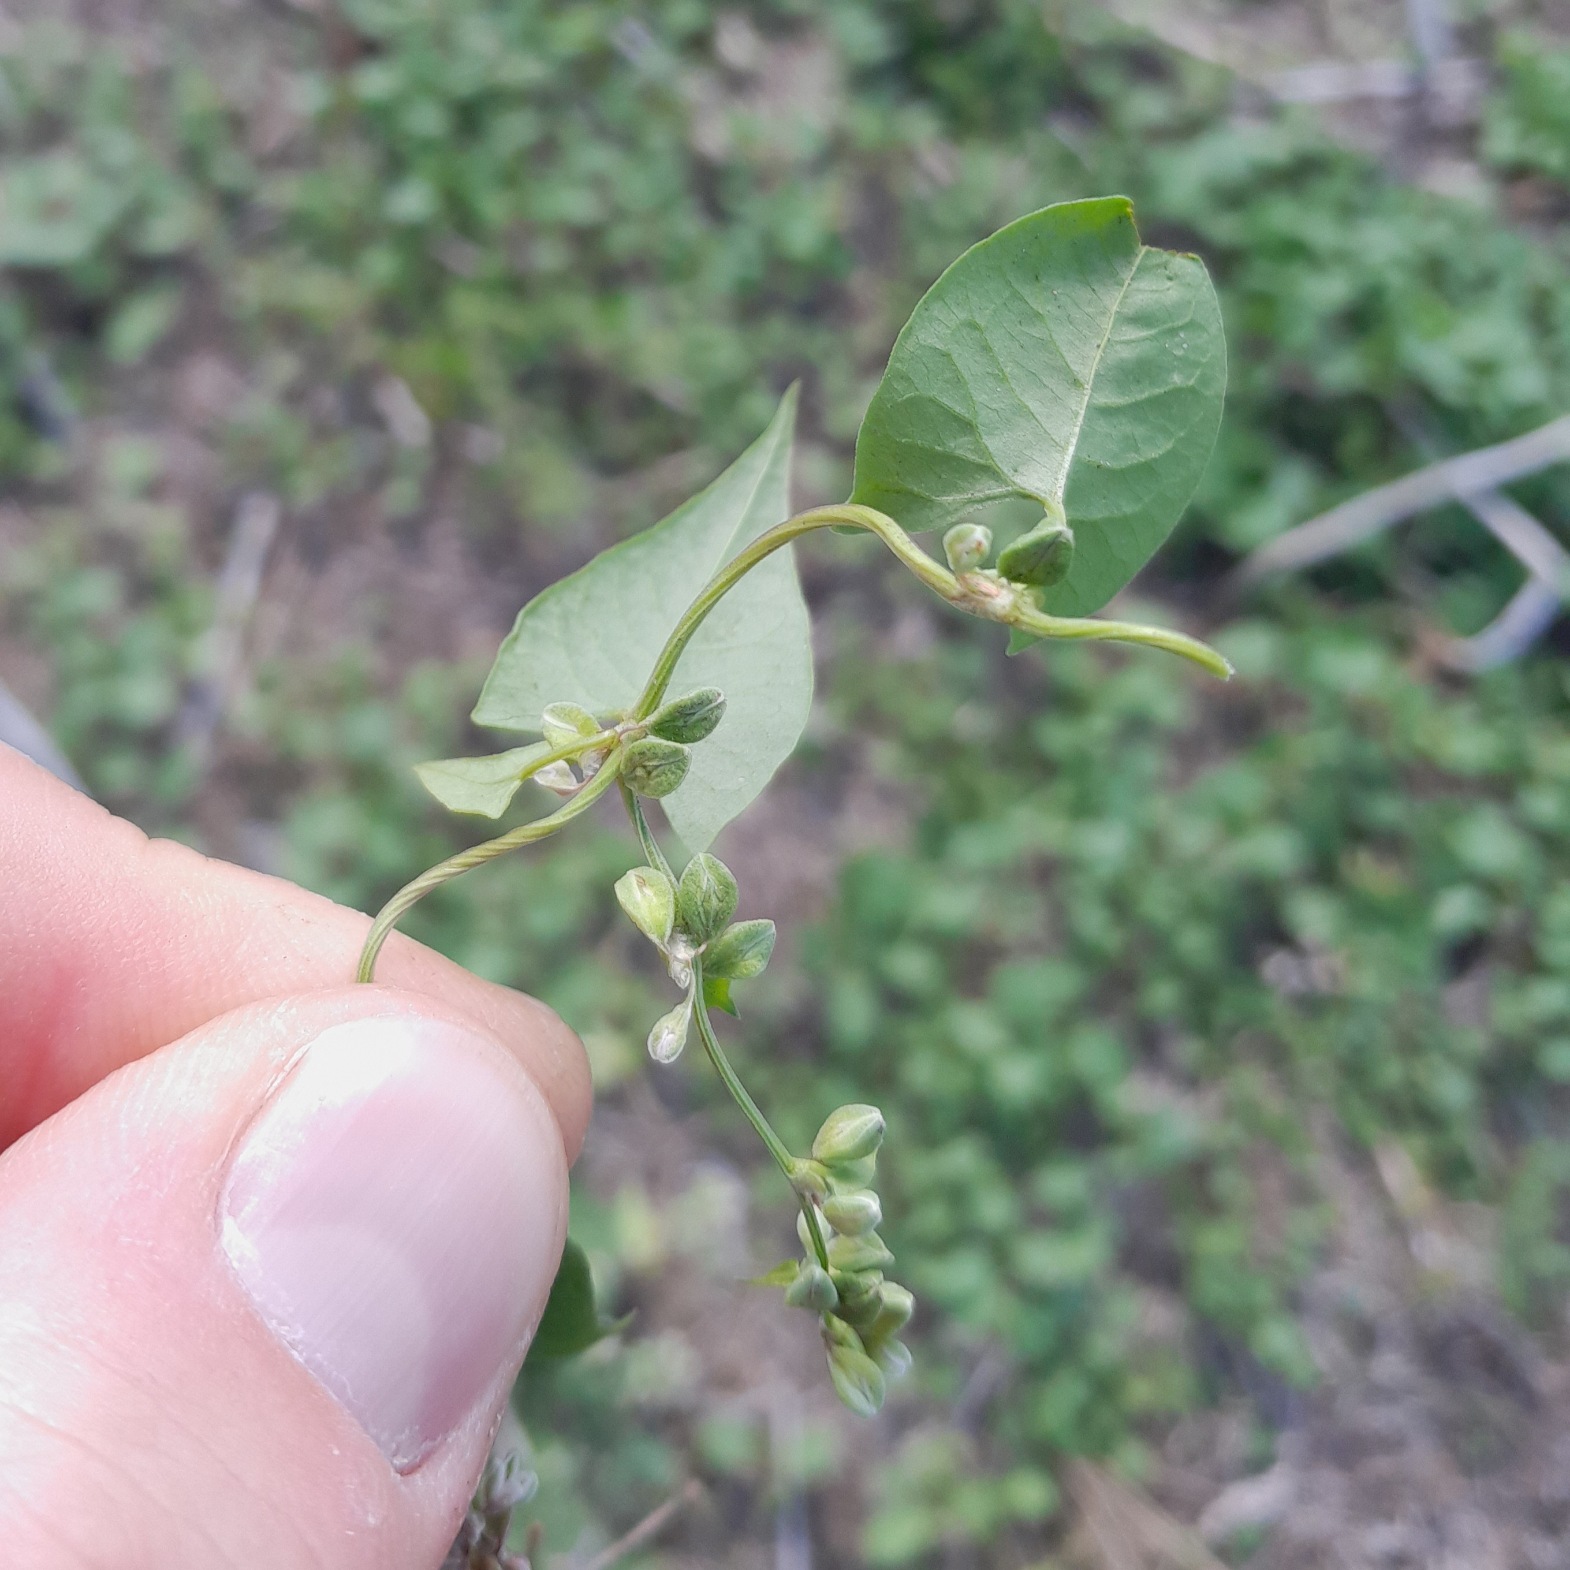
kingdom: Plantae
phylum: Tracheophyta
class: Magnoliopsida
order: Caryophyllales
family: Polygonaceae
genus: Fallopia
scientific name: Fallopia convolvulus
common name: Snerle-pileurt
